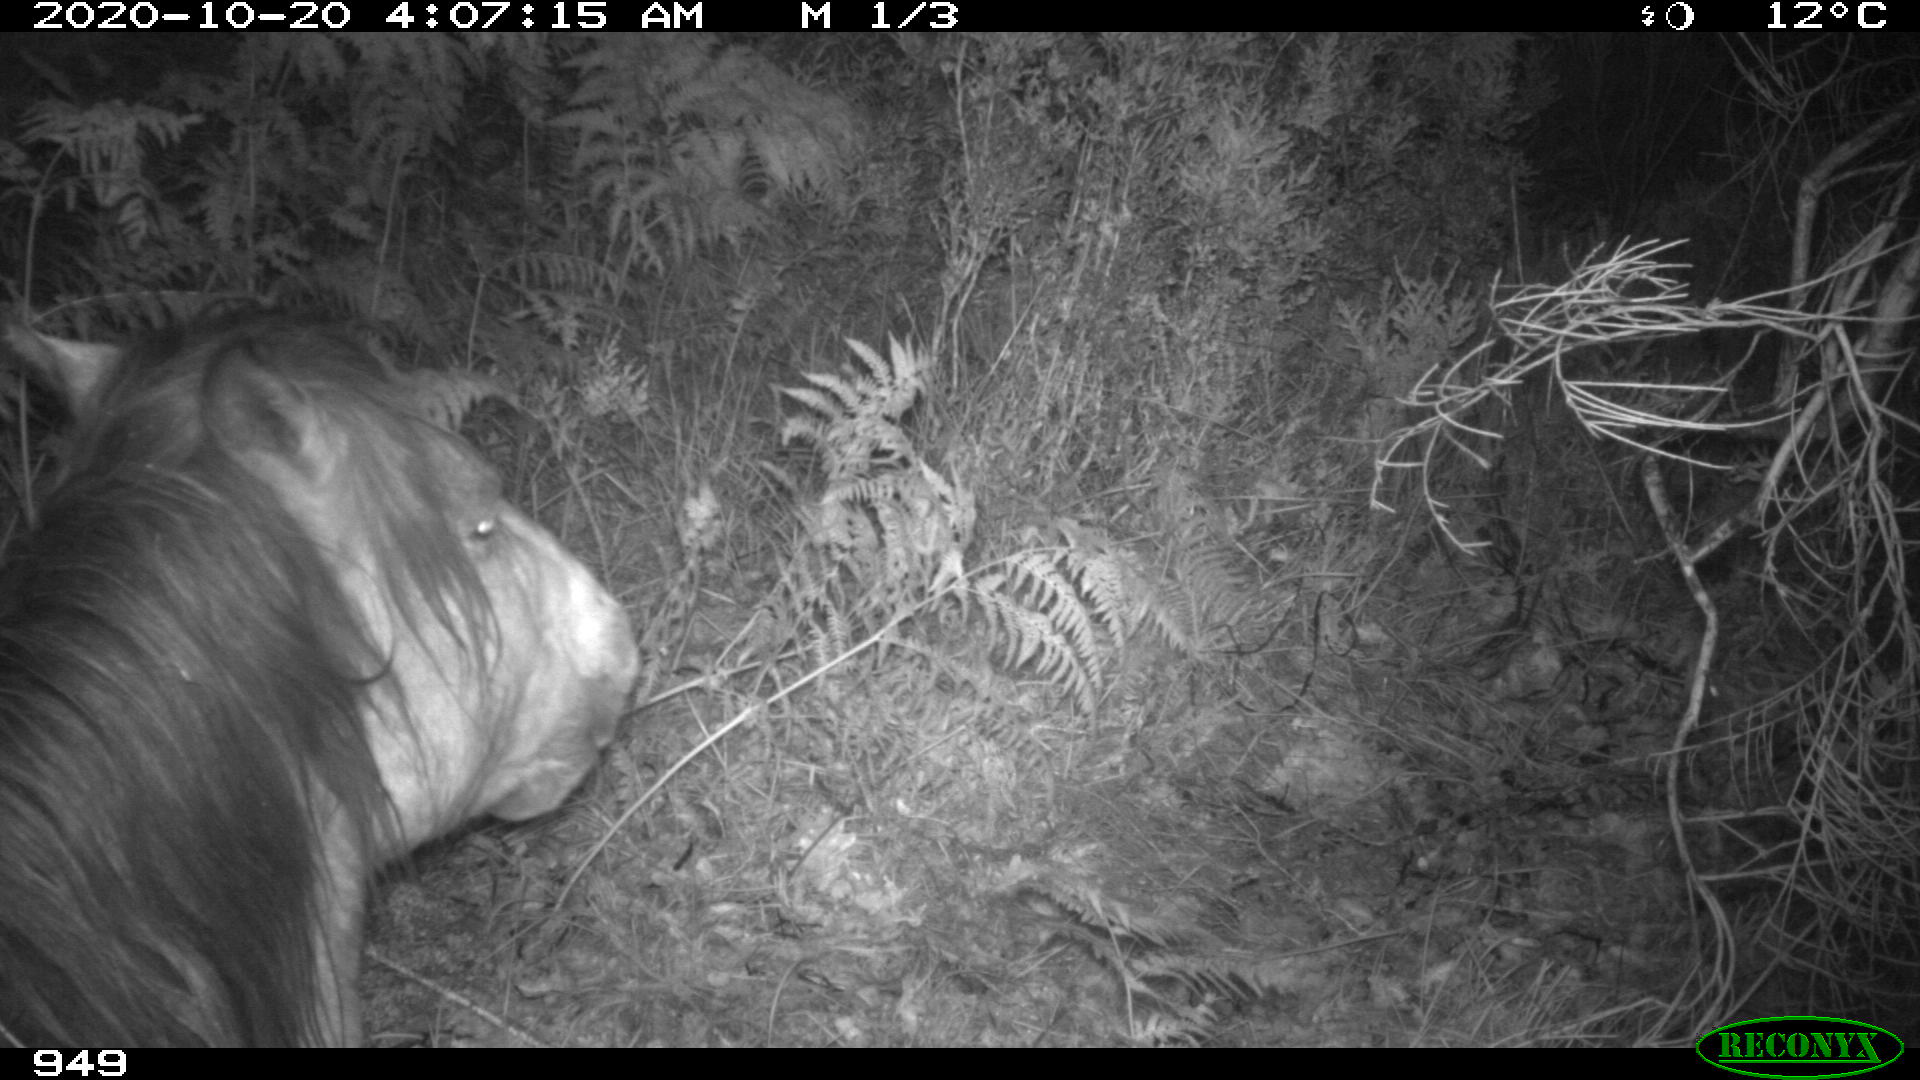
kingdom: Animalia
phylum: Chordata
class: Mammalia
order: Perissodactyla
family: Equidae
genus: Equus
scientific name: Equus caballus
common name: Horse
